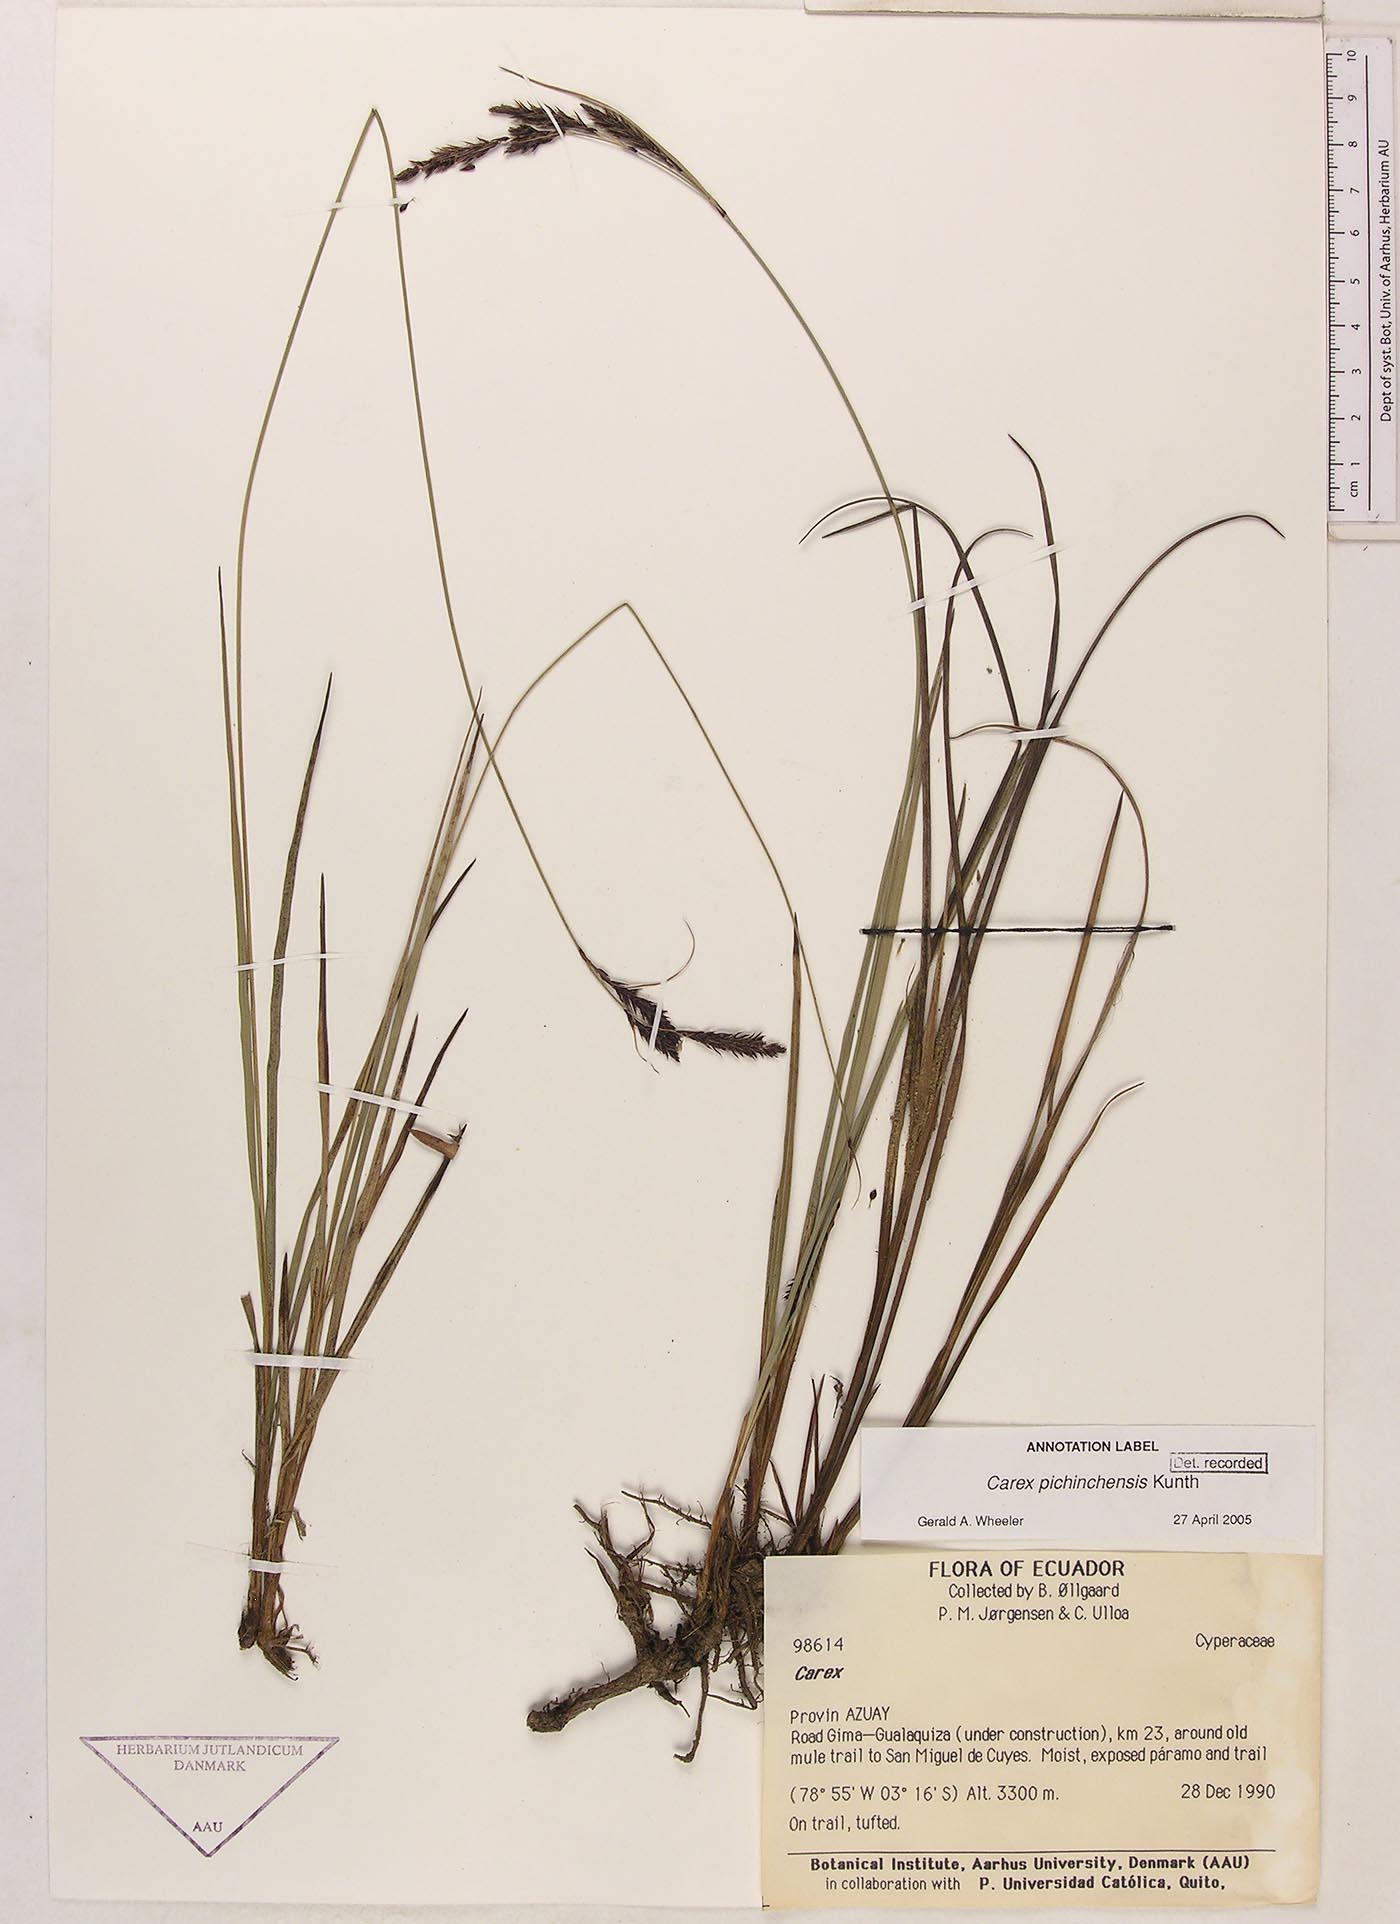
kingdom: Plantae
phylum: Tracheophyta
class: Liliopsida
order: Poales
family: Cyperaceae
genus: Carex
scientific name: Carex pichinchensis
